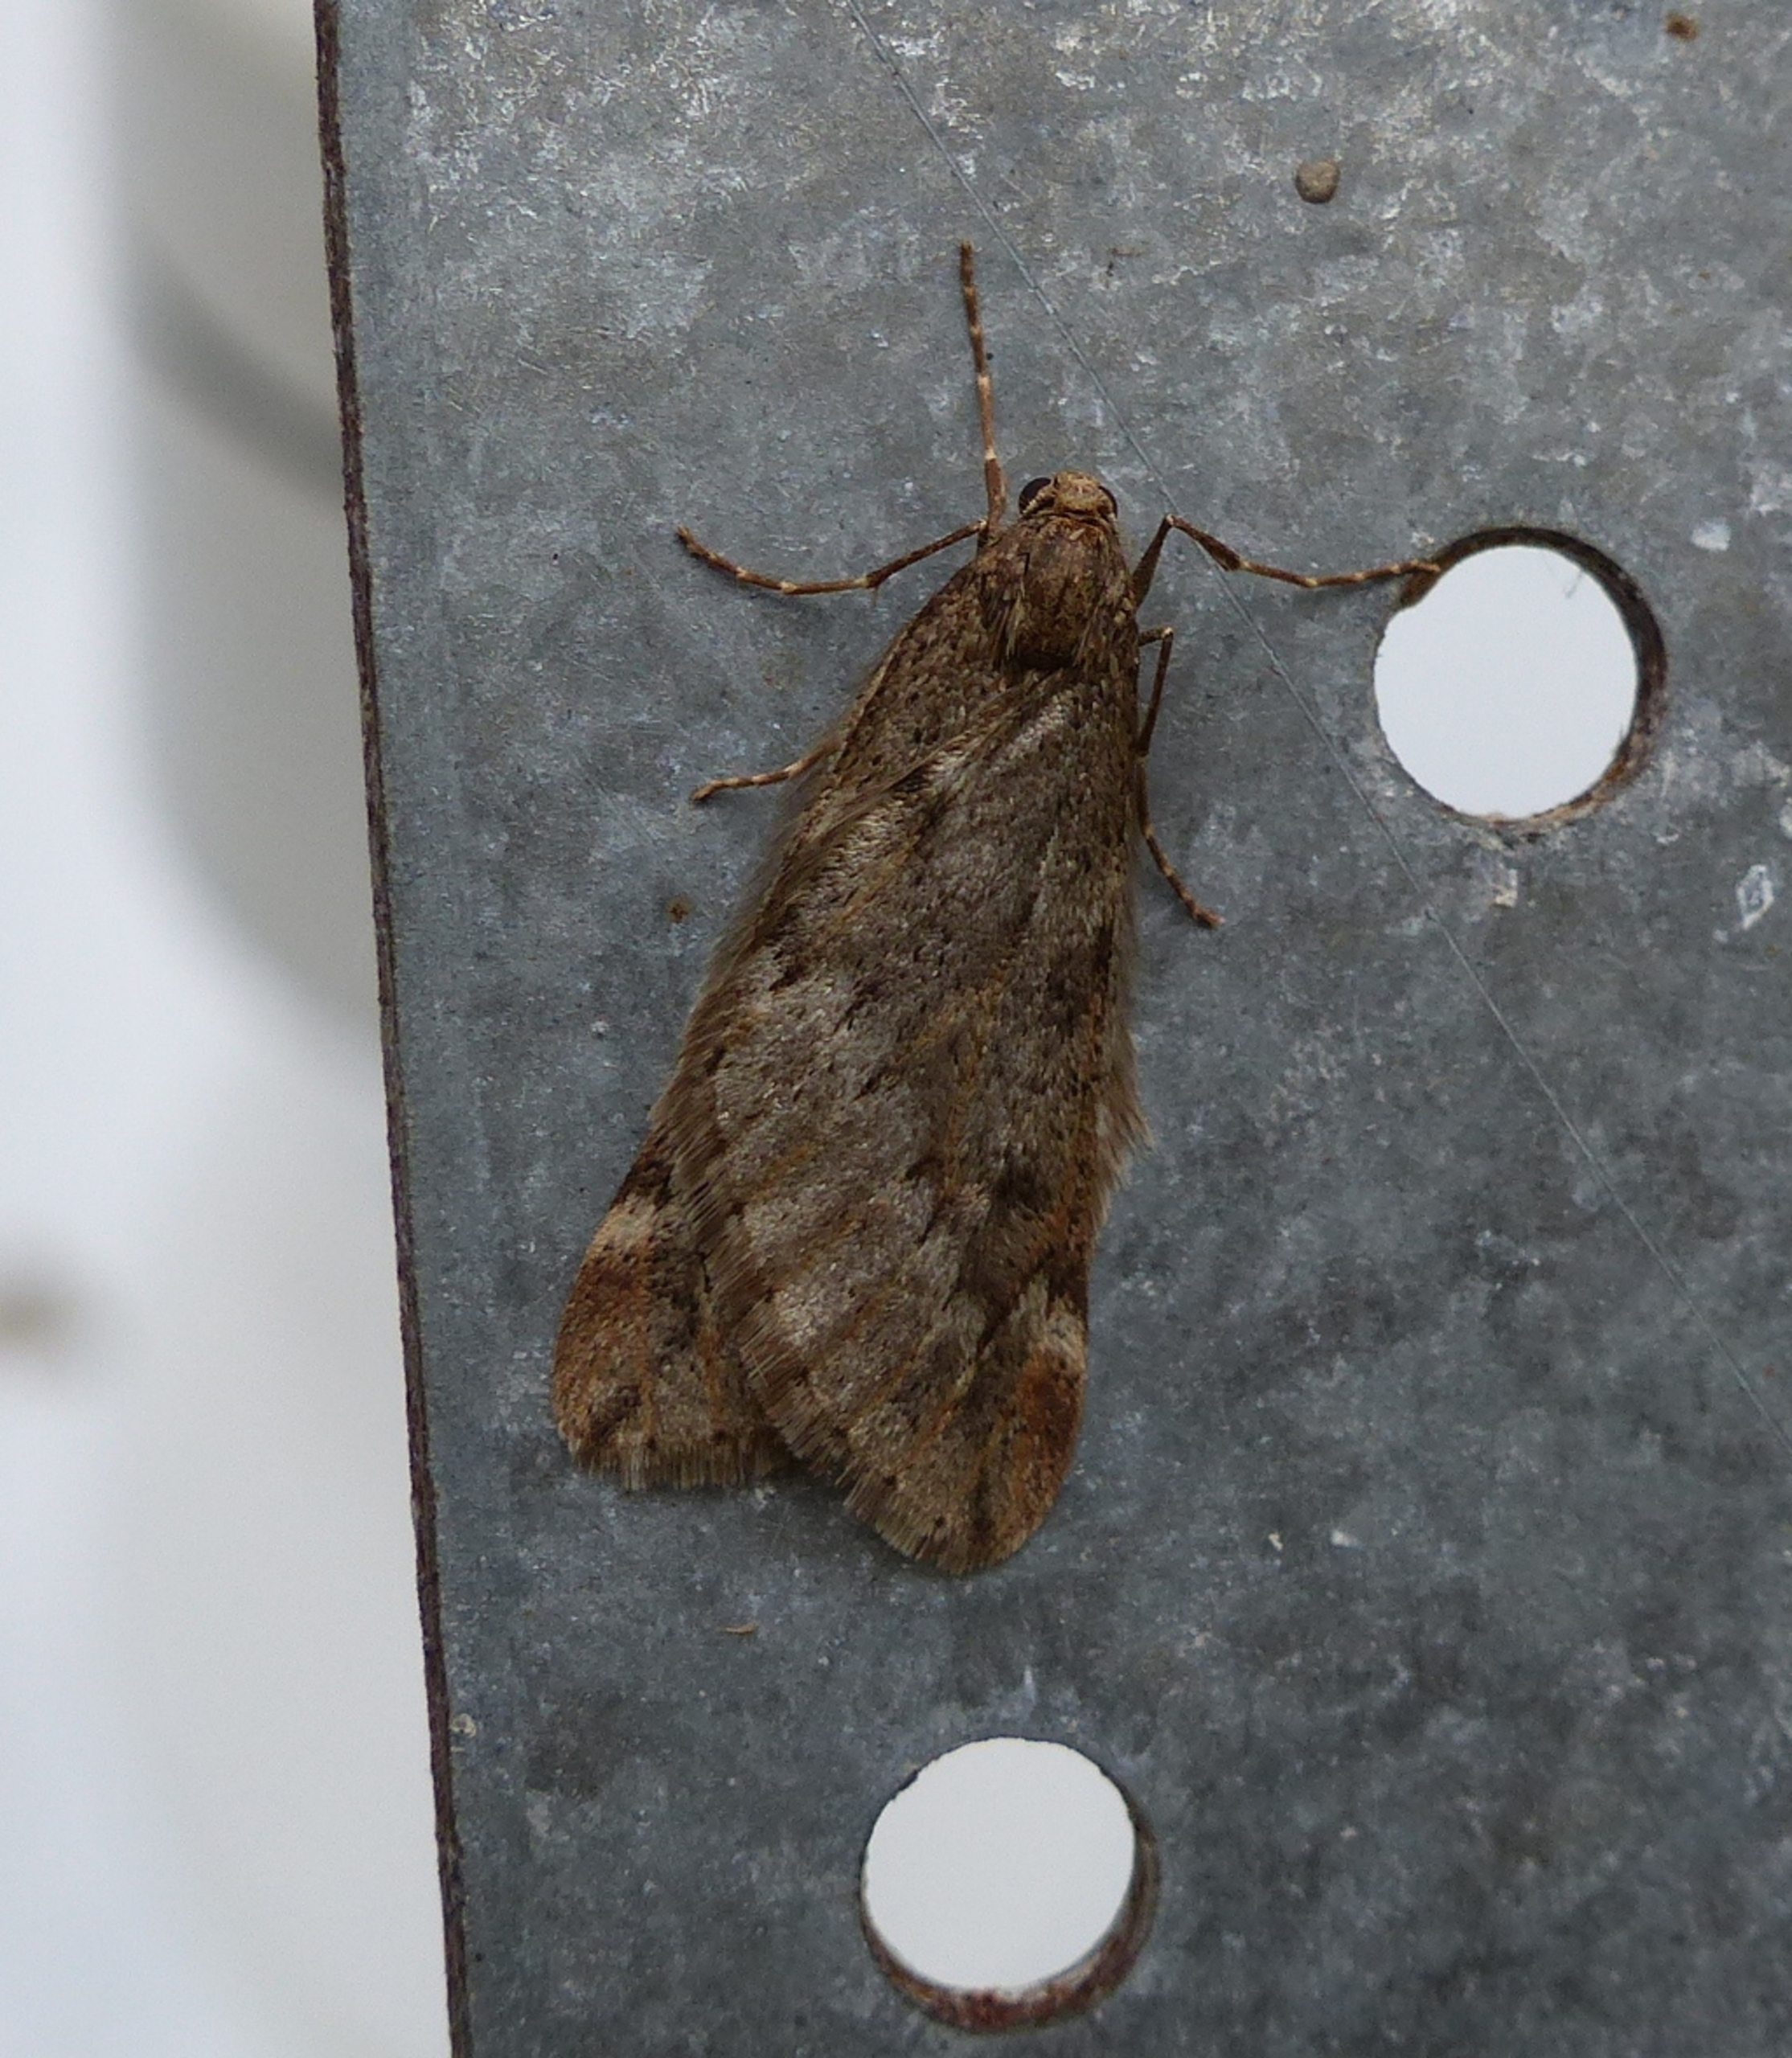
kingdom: Animalia
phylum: Arthropoda
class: Insecta
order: Lepidoptera
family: Geometridae
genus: Alsophila
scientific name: Alsophila aescularia
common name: Uldgumpmåler
